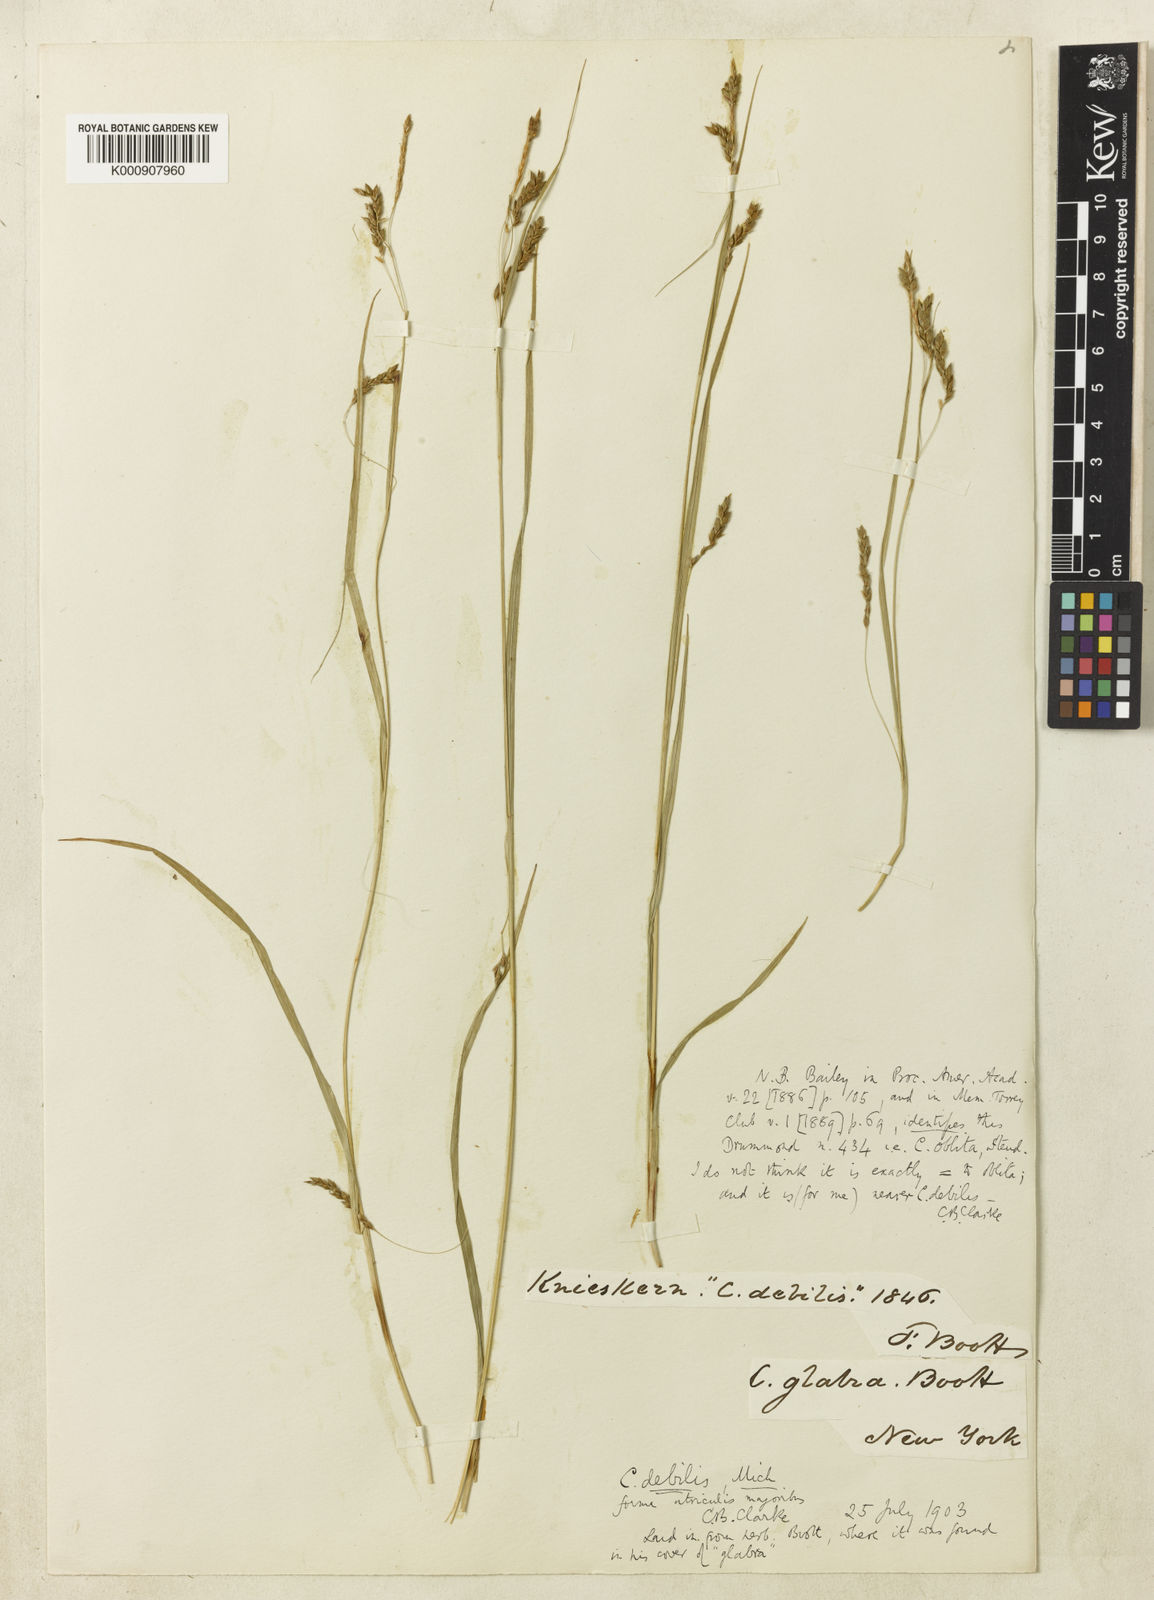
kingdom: Plantae
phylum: Tracheophyta
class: Liliopsida
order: Poales
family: Cyperaceae
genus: Carex
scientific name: Carex venusta
